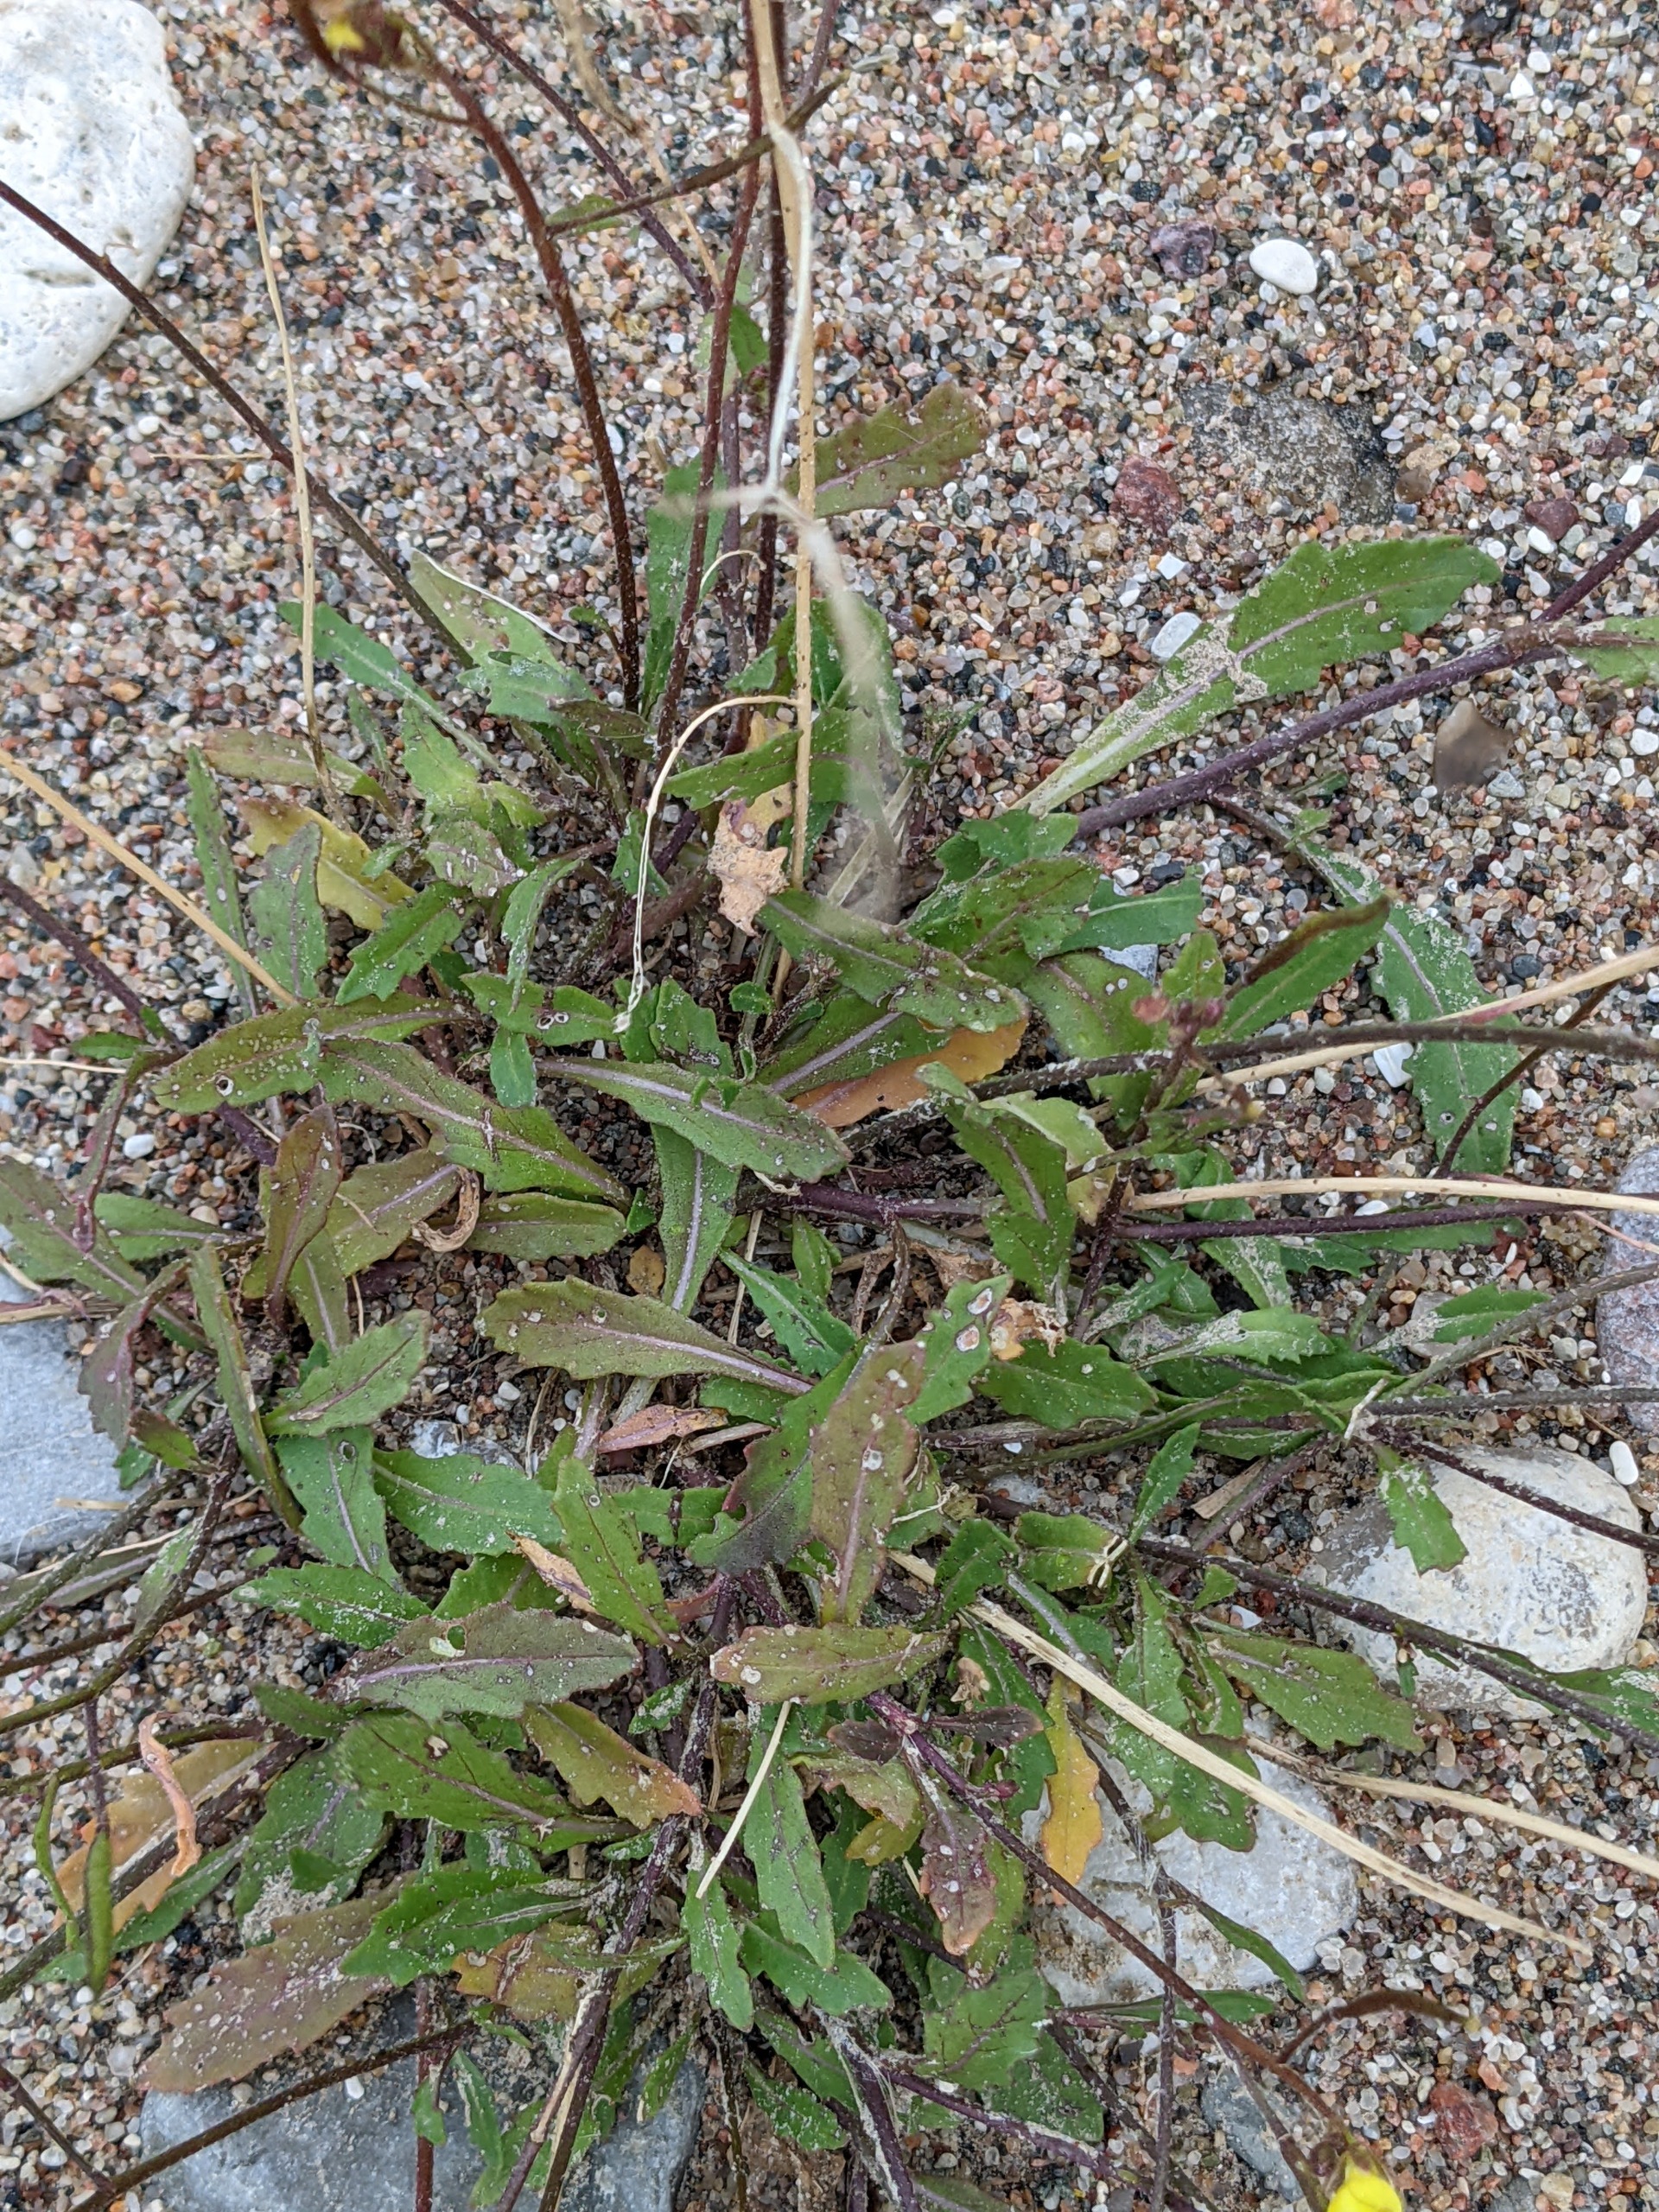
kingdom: Plantae
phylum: Tracheophyta
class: Magnoliopsida
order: Brassicales
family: Brassicaceae
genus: Diplotaxis
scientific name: Diplotaxis muralis
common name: Mursennep
